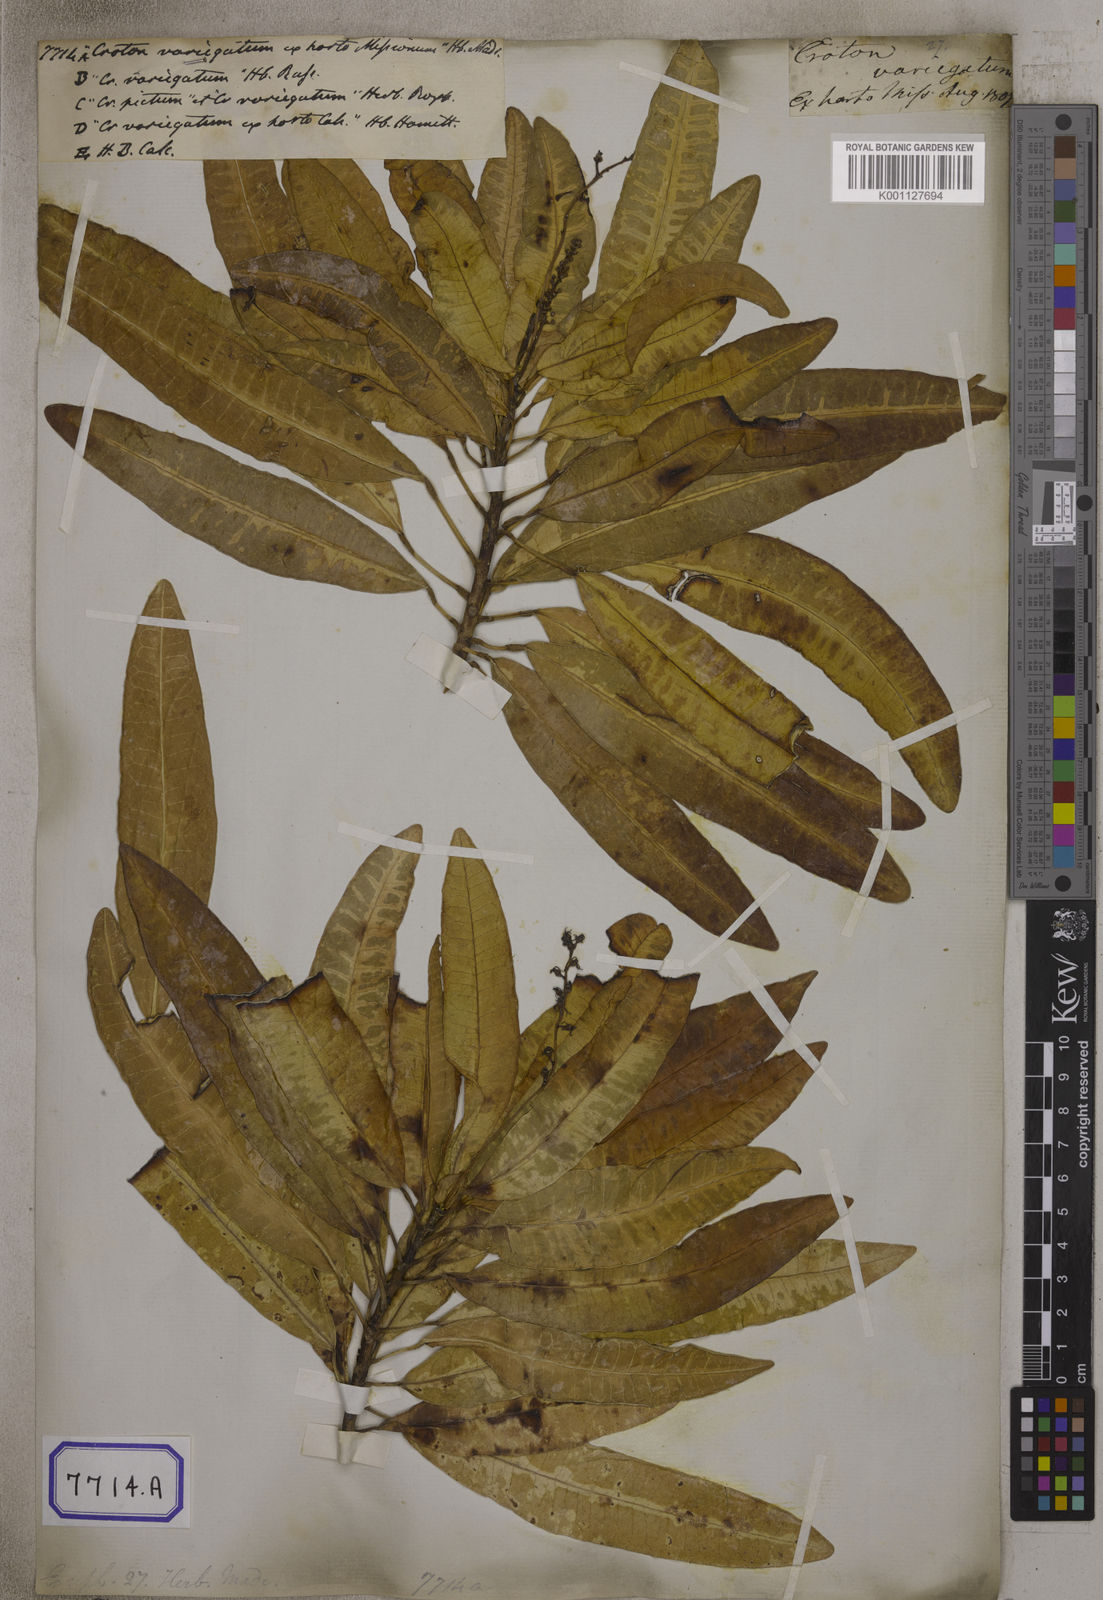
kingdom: Plantae
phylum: Tracheophyta
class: Magnoliopsida
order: Malpighiales
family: Euphorbiaceae
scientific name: Euphorbiaceae
